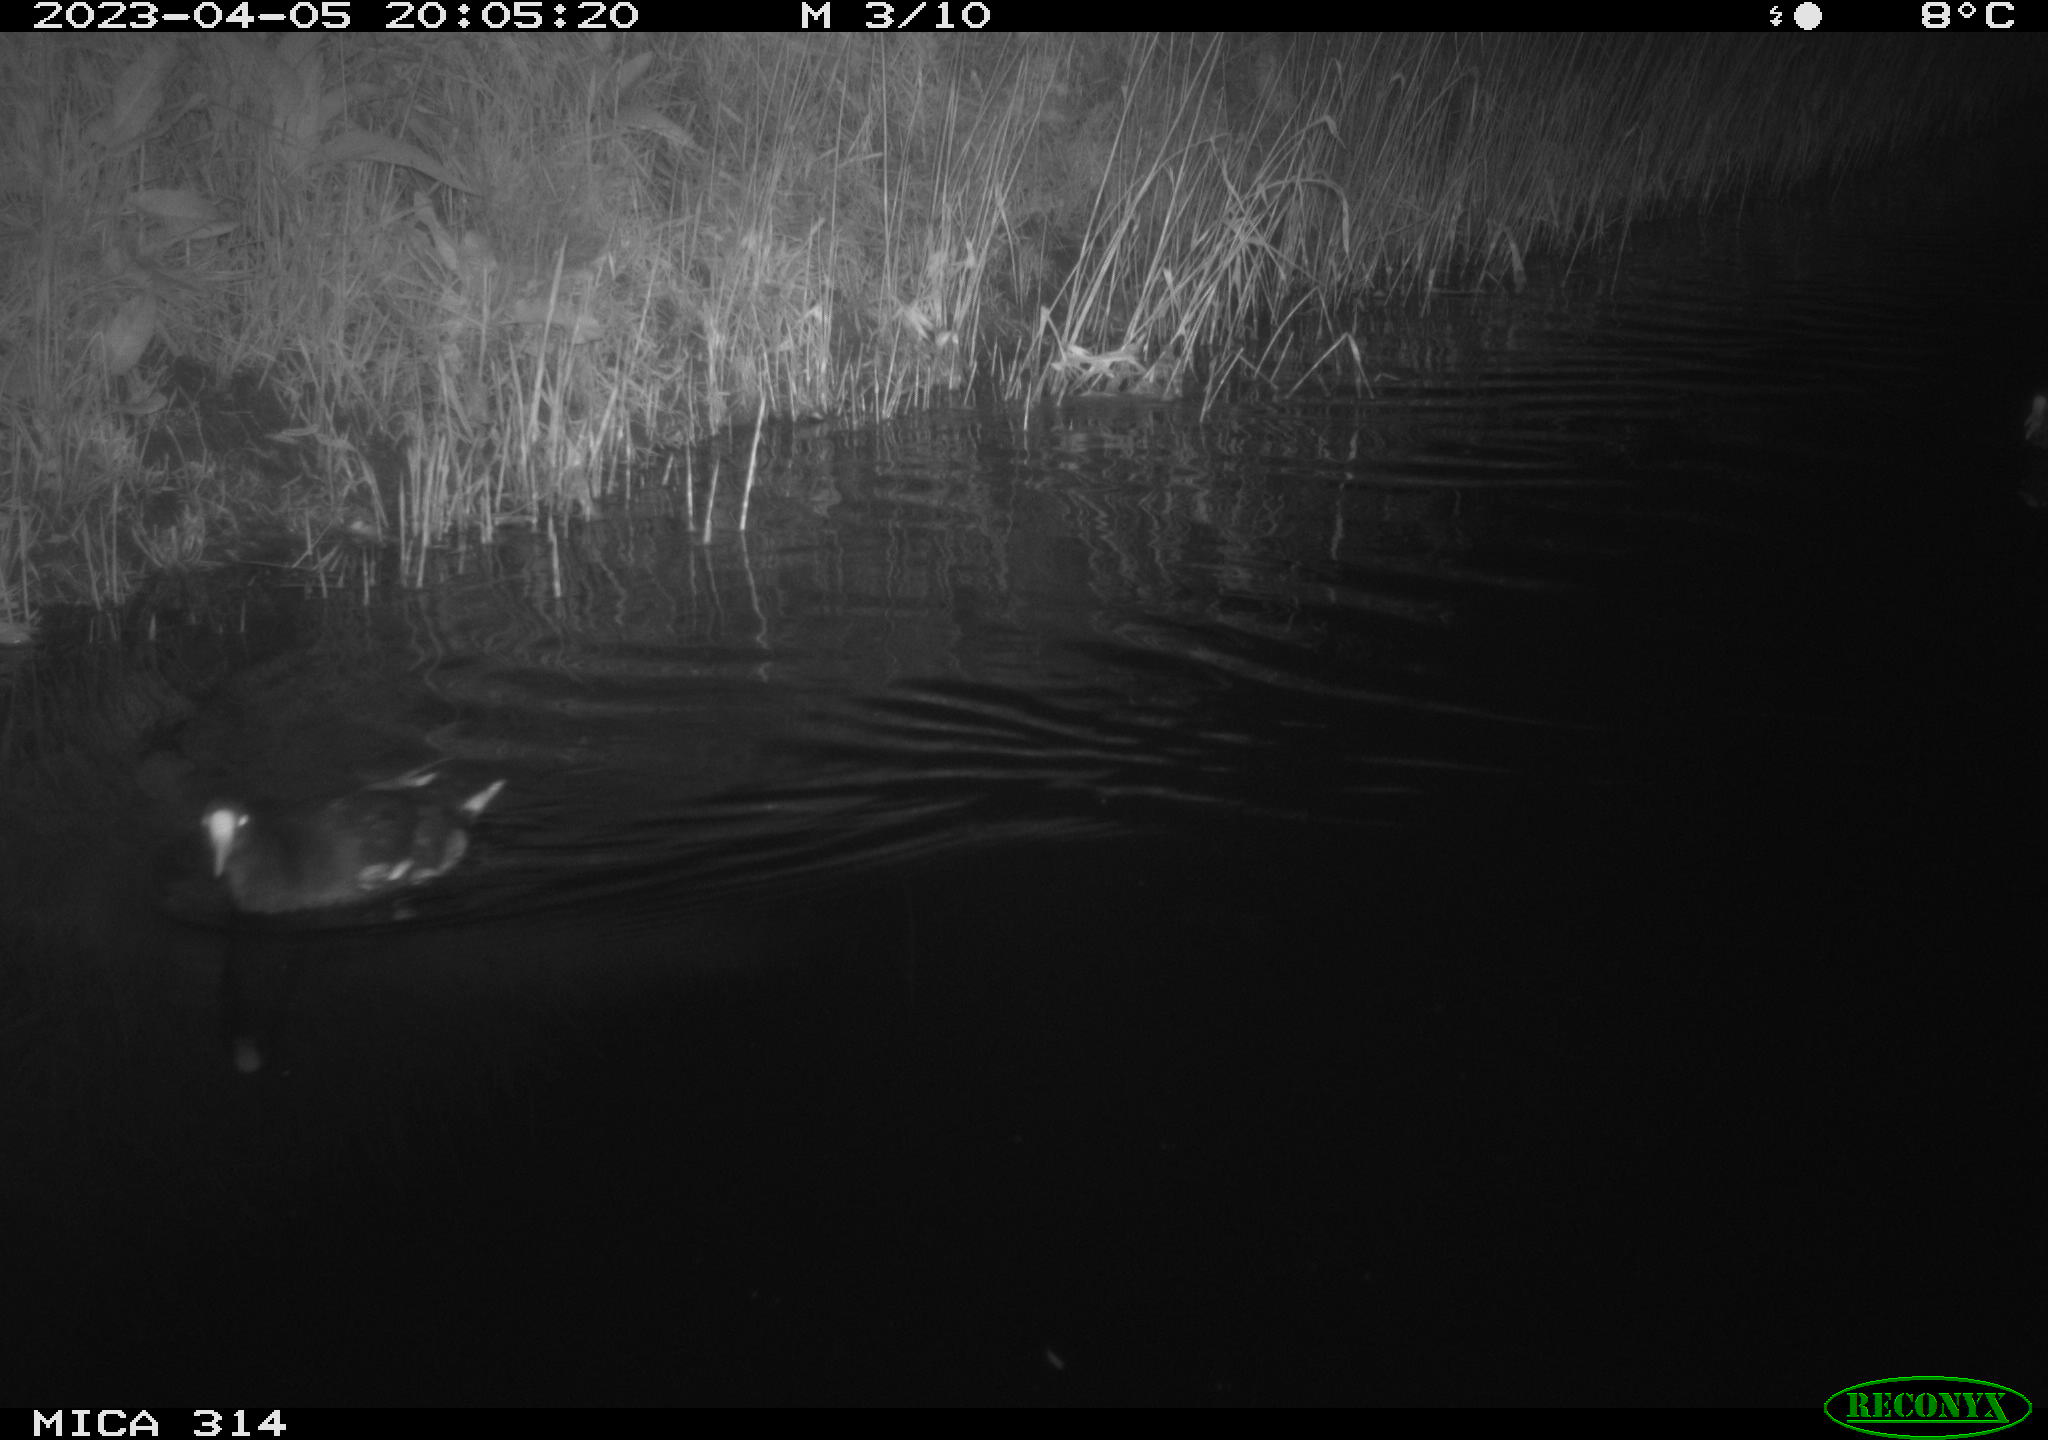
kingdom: Animalia
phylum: Chordata
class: Aves
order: Gruiformes
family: Rallidae
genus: Gallinula
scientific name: Gallinula chloropus
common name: Common moorhen
